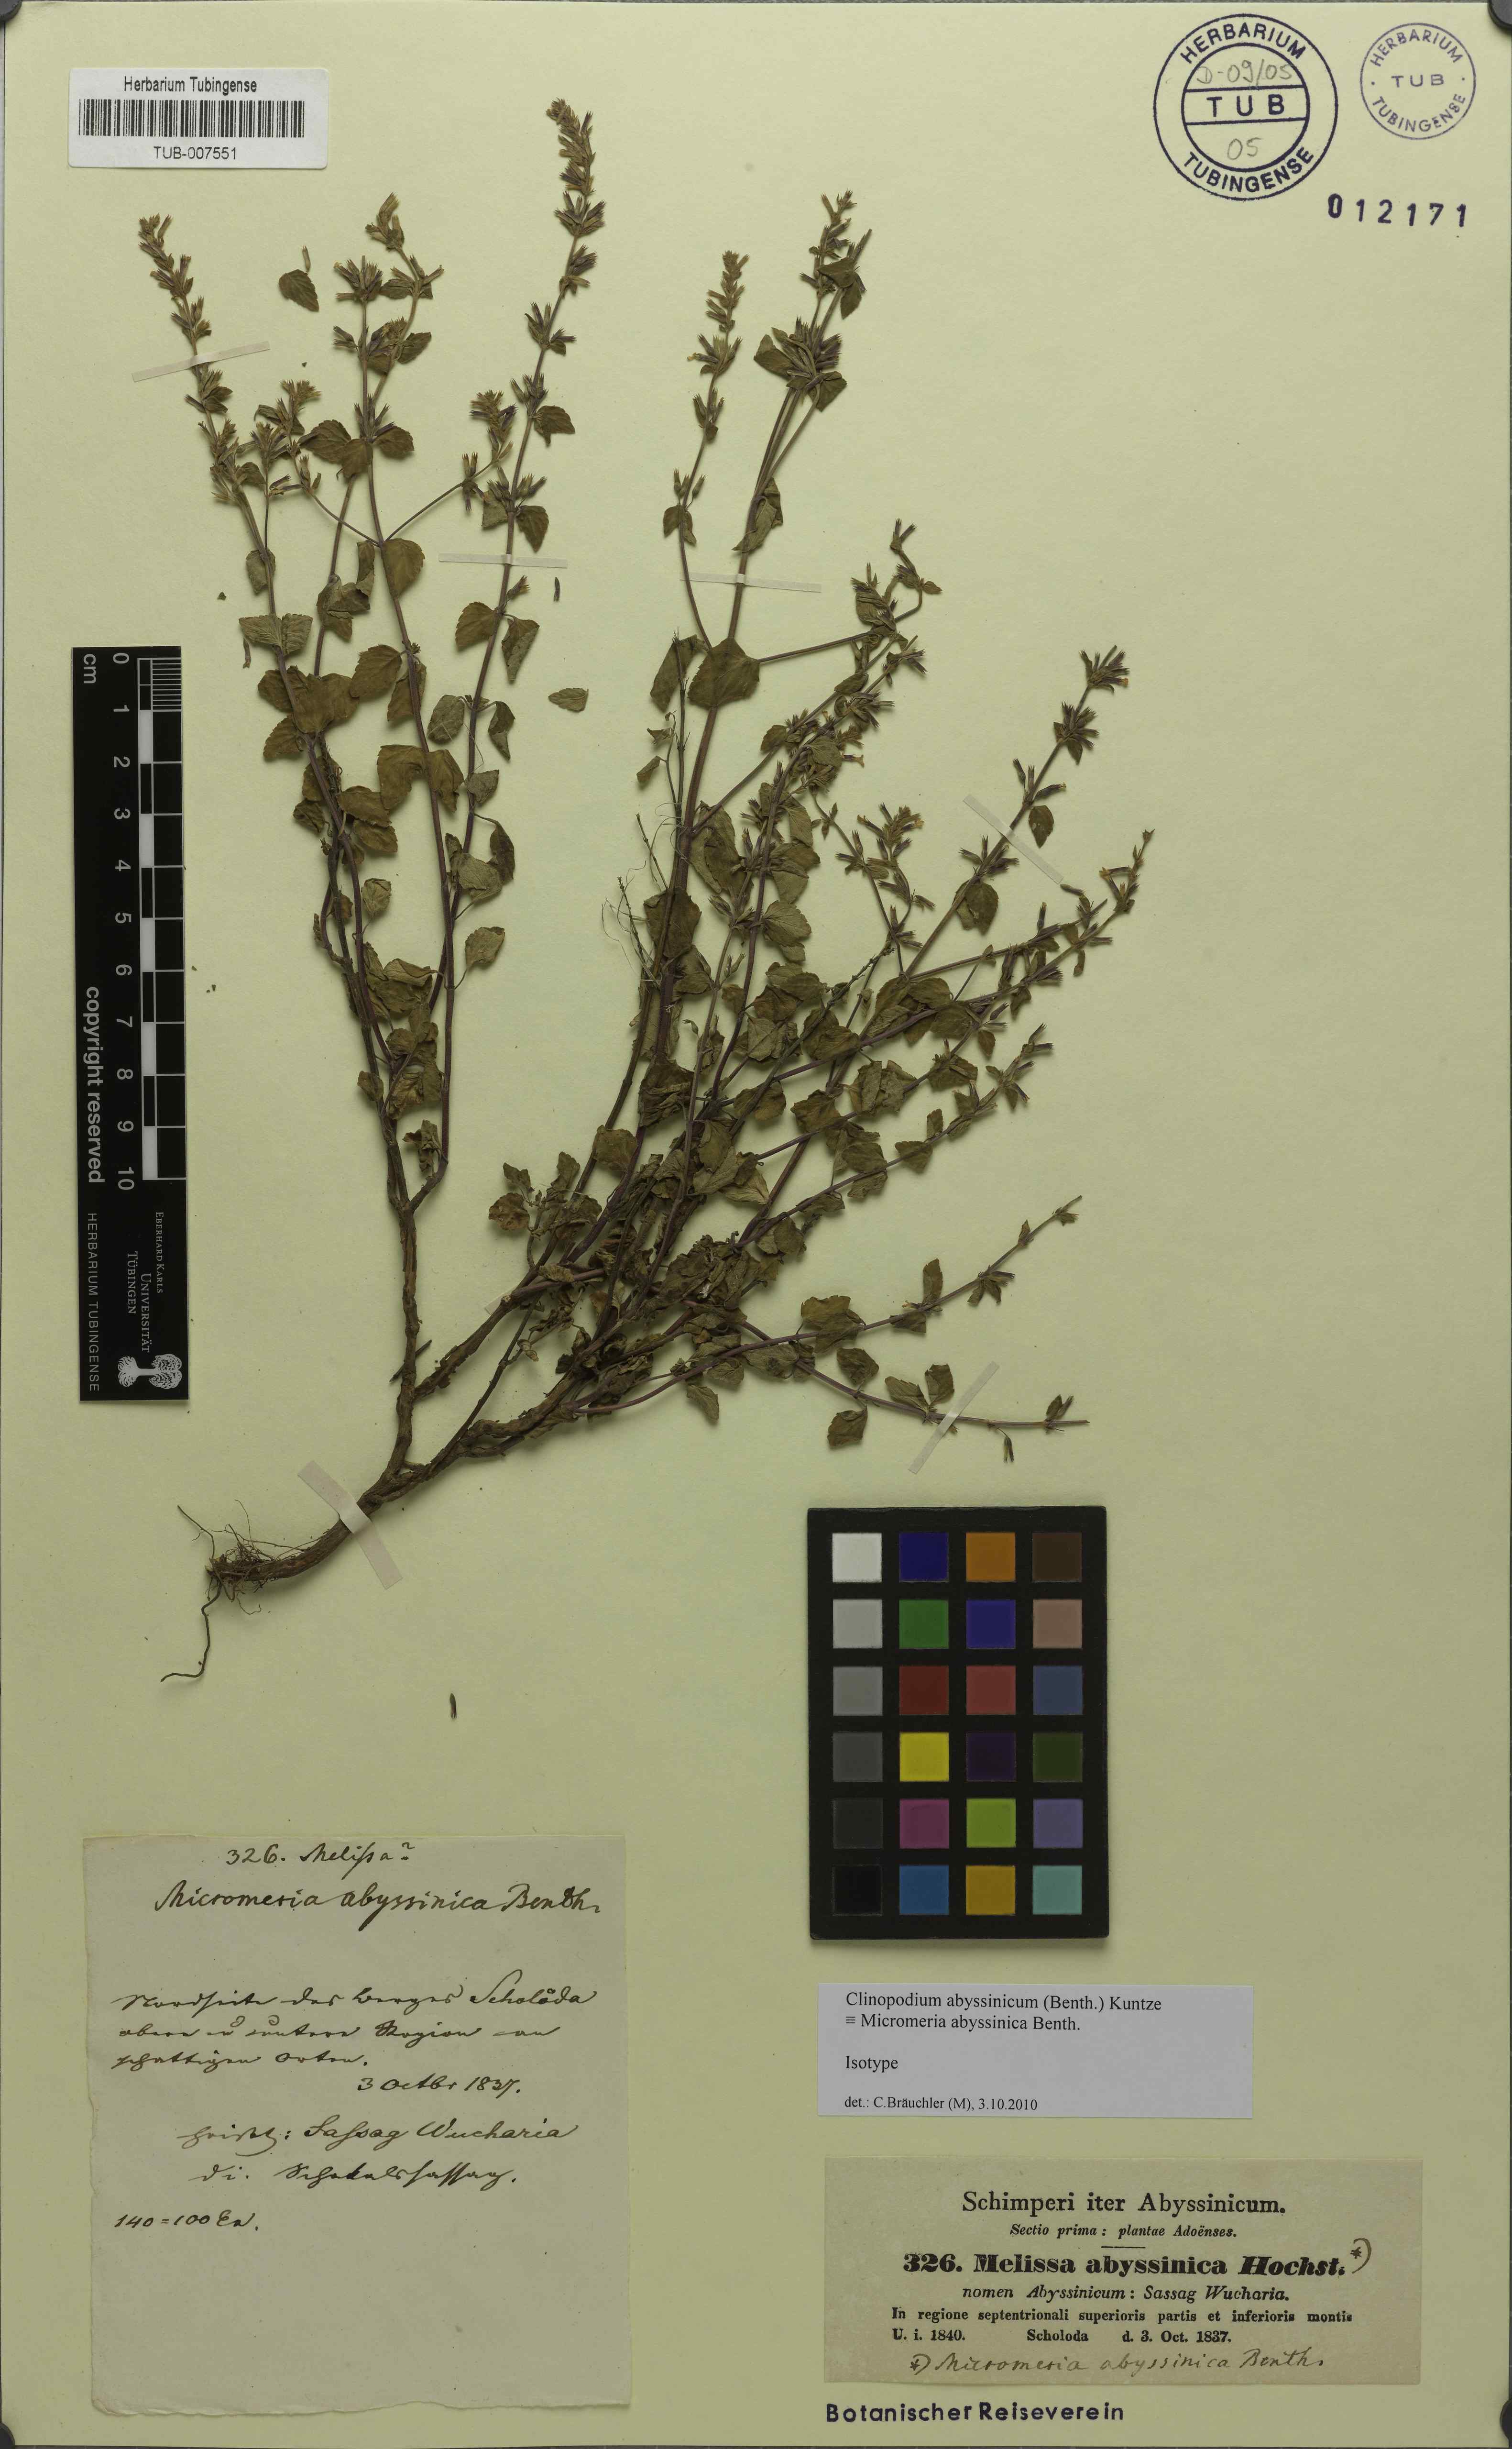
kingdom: Plantae
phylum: Tracheophyta
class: Magnoliopsida
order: Lamiales
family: Lamiaceae
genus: Clinopodium
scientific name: Clinopodium abyssinicum
